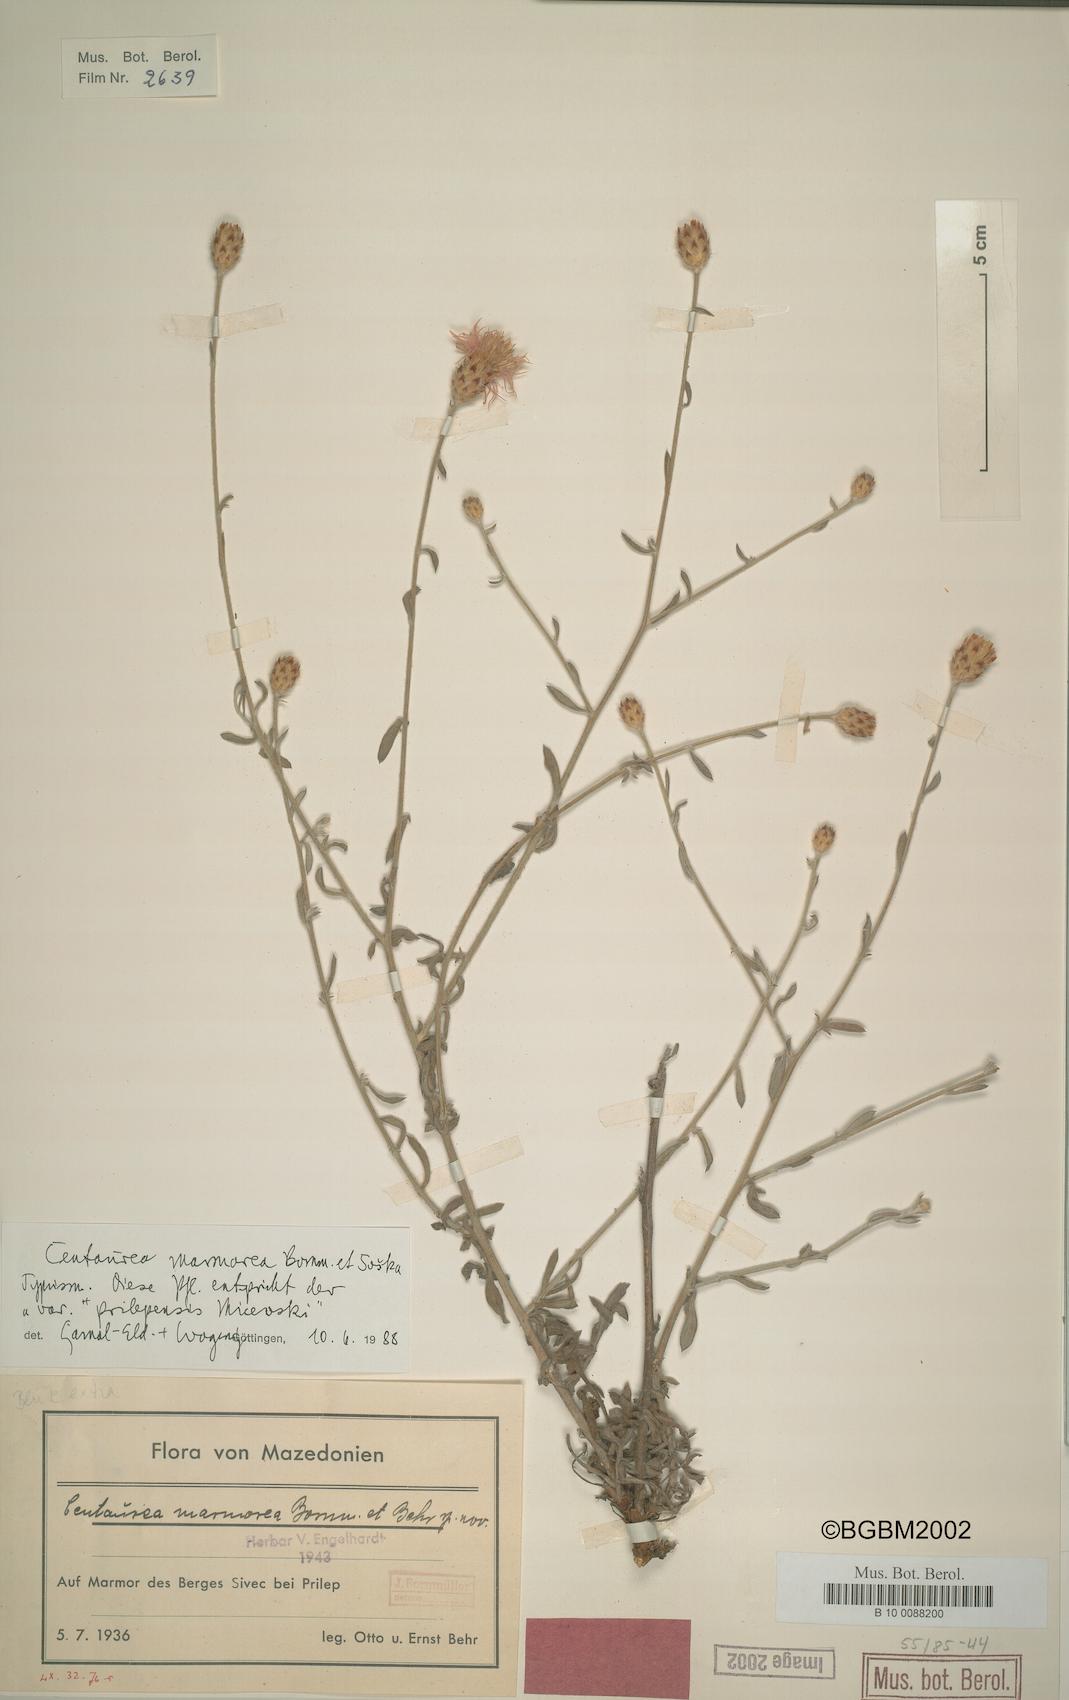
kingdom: Plantae
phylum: Tracheophyta
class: Magnoliopsida
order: Asterales
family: Asteraceae
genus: Centaurea
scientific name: Centaurea marmorea
